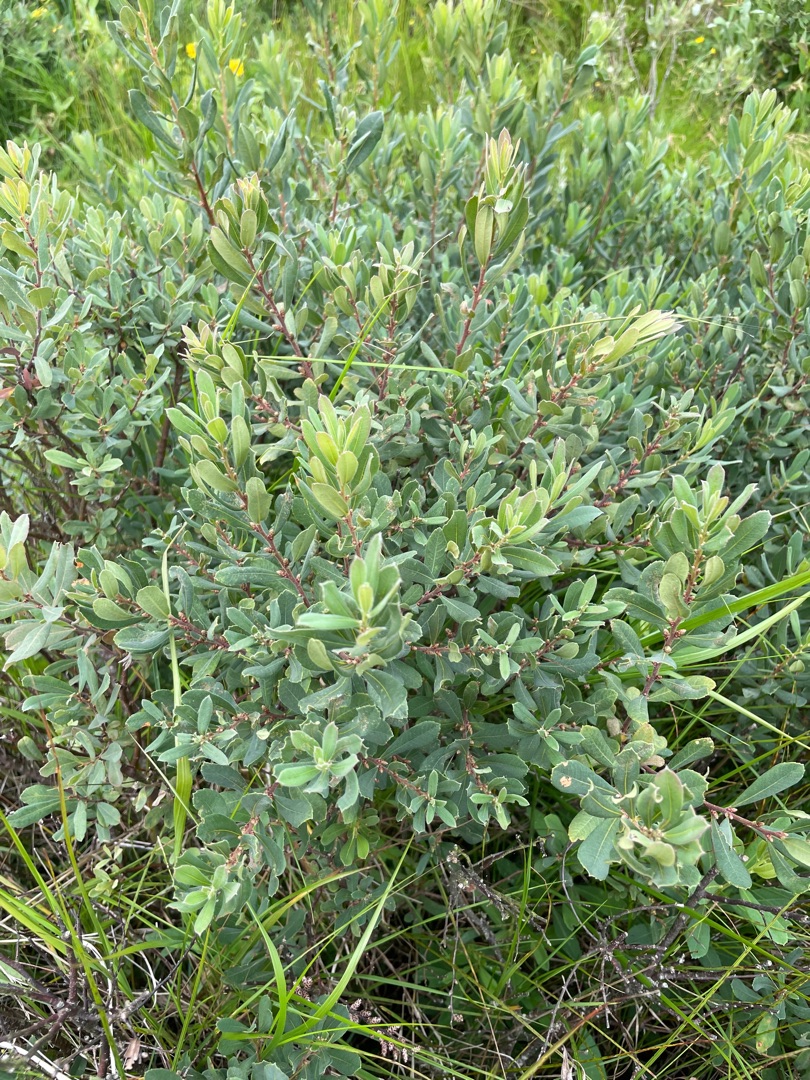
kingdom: Plantae
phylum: Tracheophyta
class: Magnoliopsida
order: Fagales
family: Myricaceae
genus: Myrica
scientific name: Myrica gale
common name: Pors
